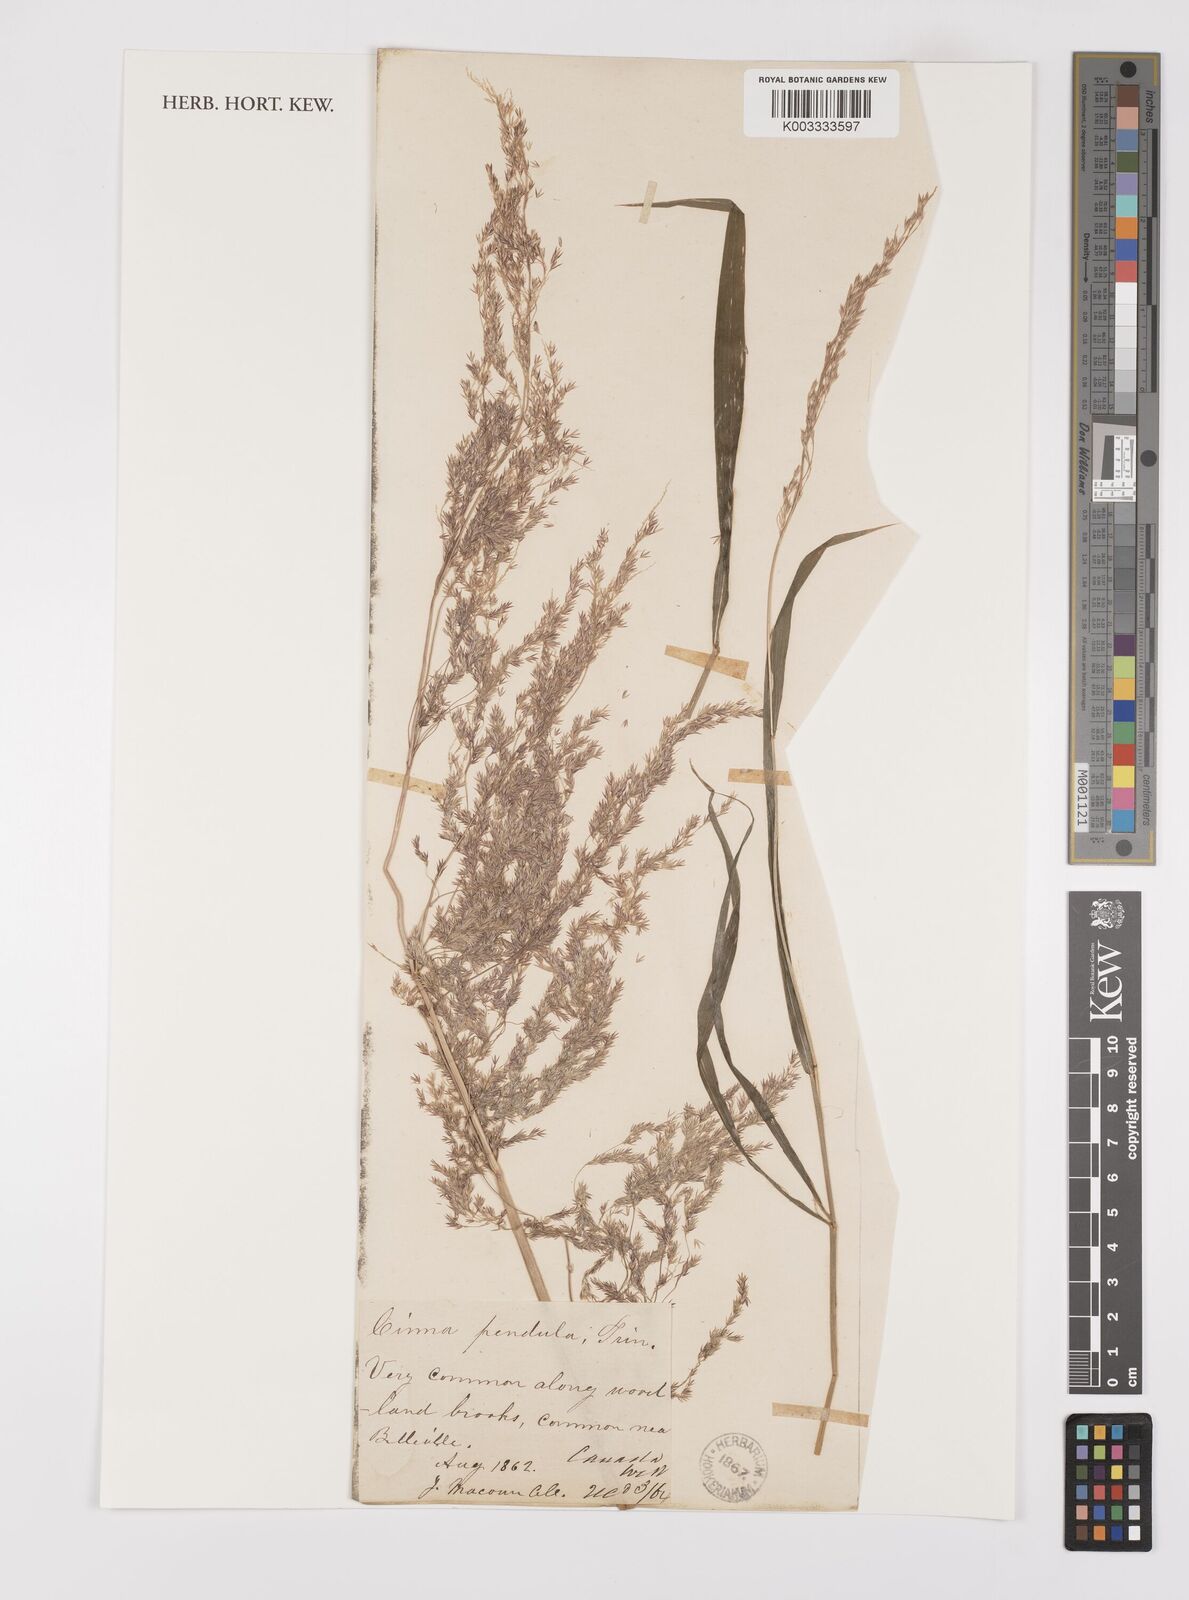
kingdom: Plantae
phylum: Tracheophyta
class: Liliopsida
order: Poales
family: Poaceae
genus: Cinna
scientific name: Cinna latifolia
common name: Drooping woodreed
